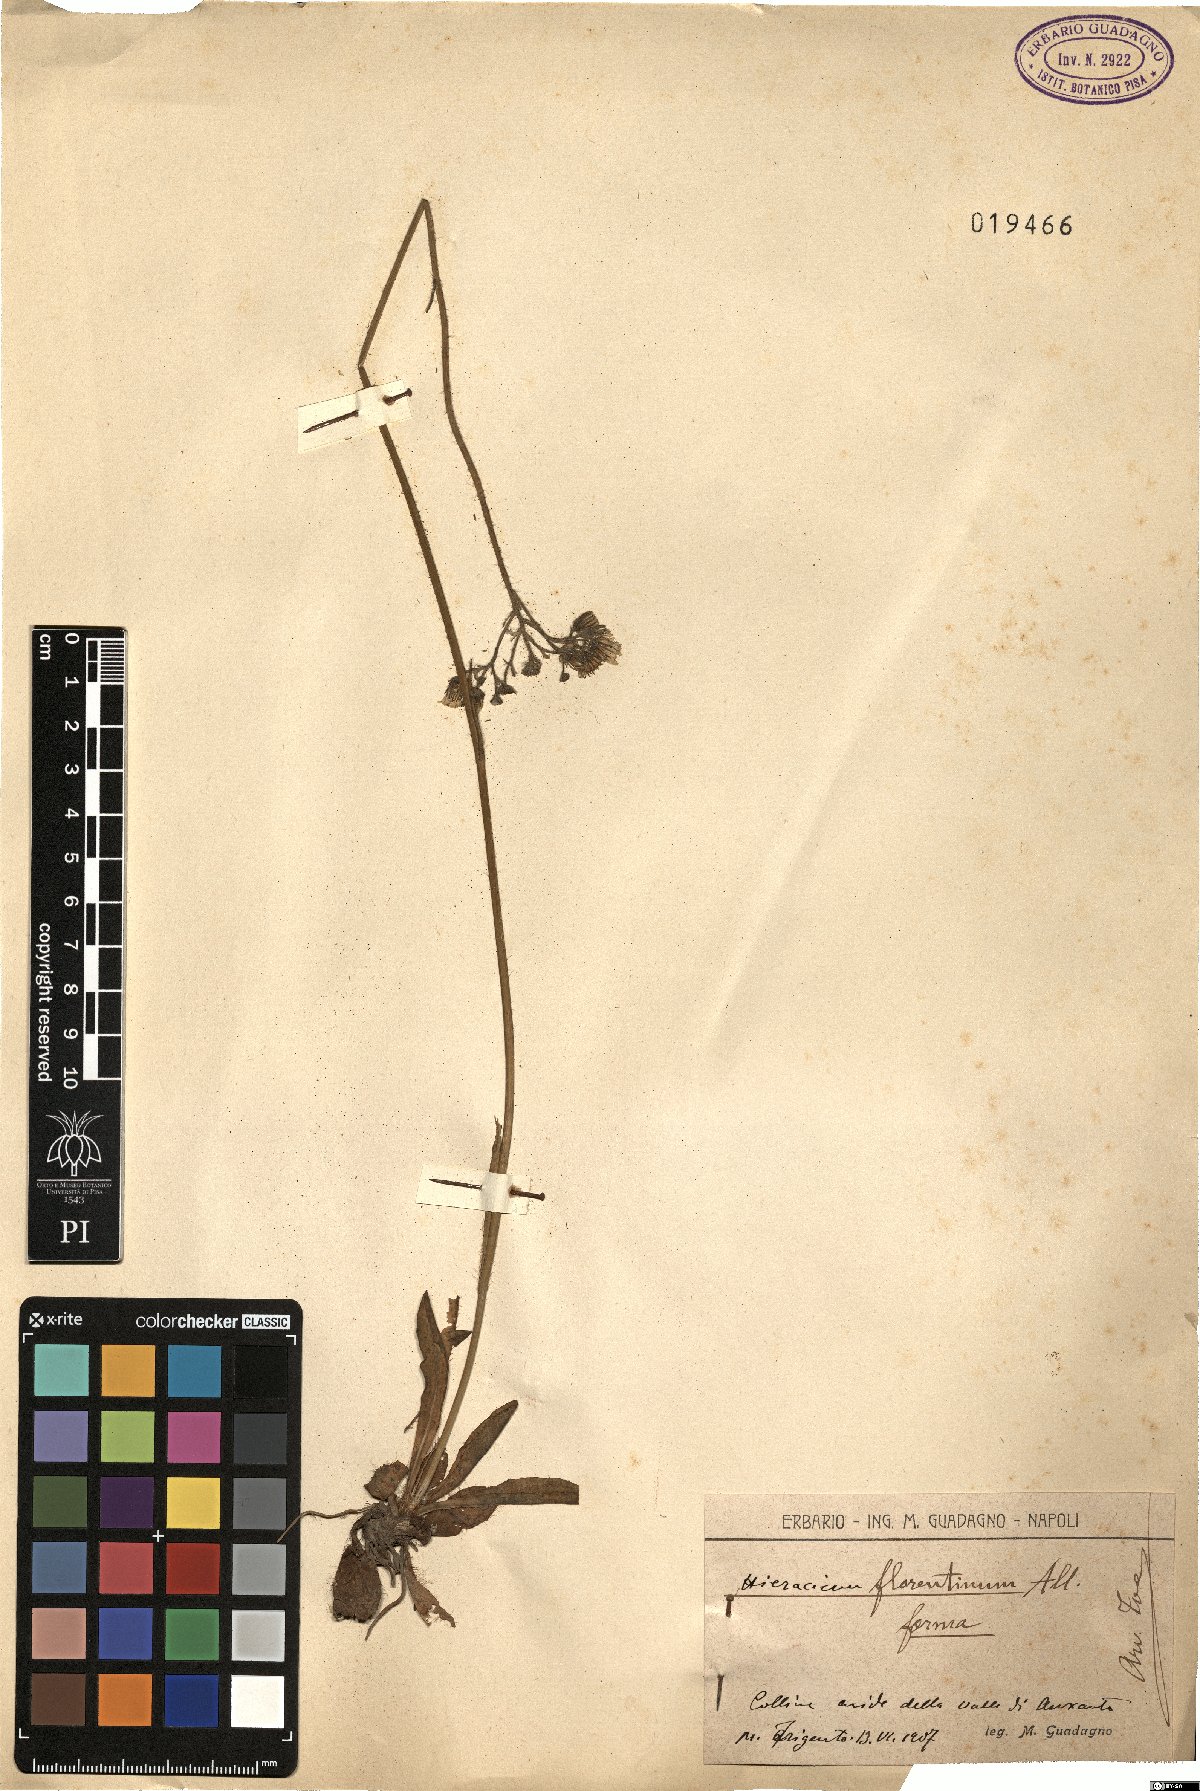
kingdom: Plantae
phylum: Tracheophyta
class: Magnoliopsida
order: Asterales
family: Asteraceae
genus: Pilosella
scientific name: Pilosella piloselloides
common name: Glaucous king-devil
